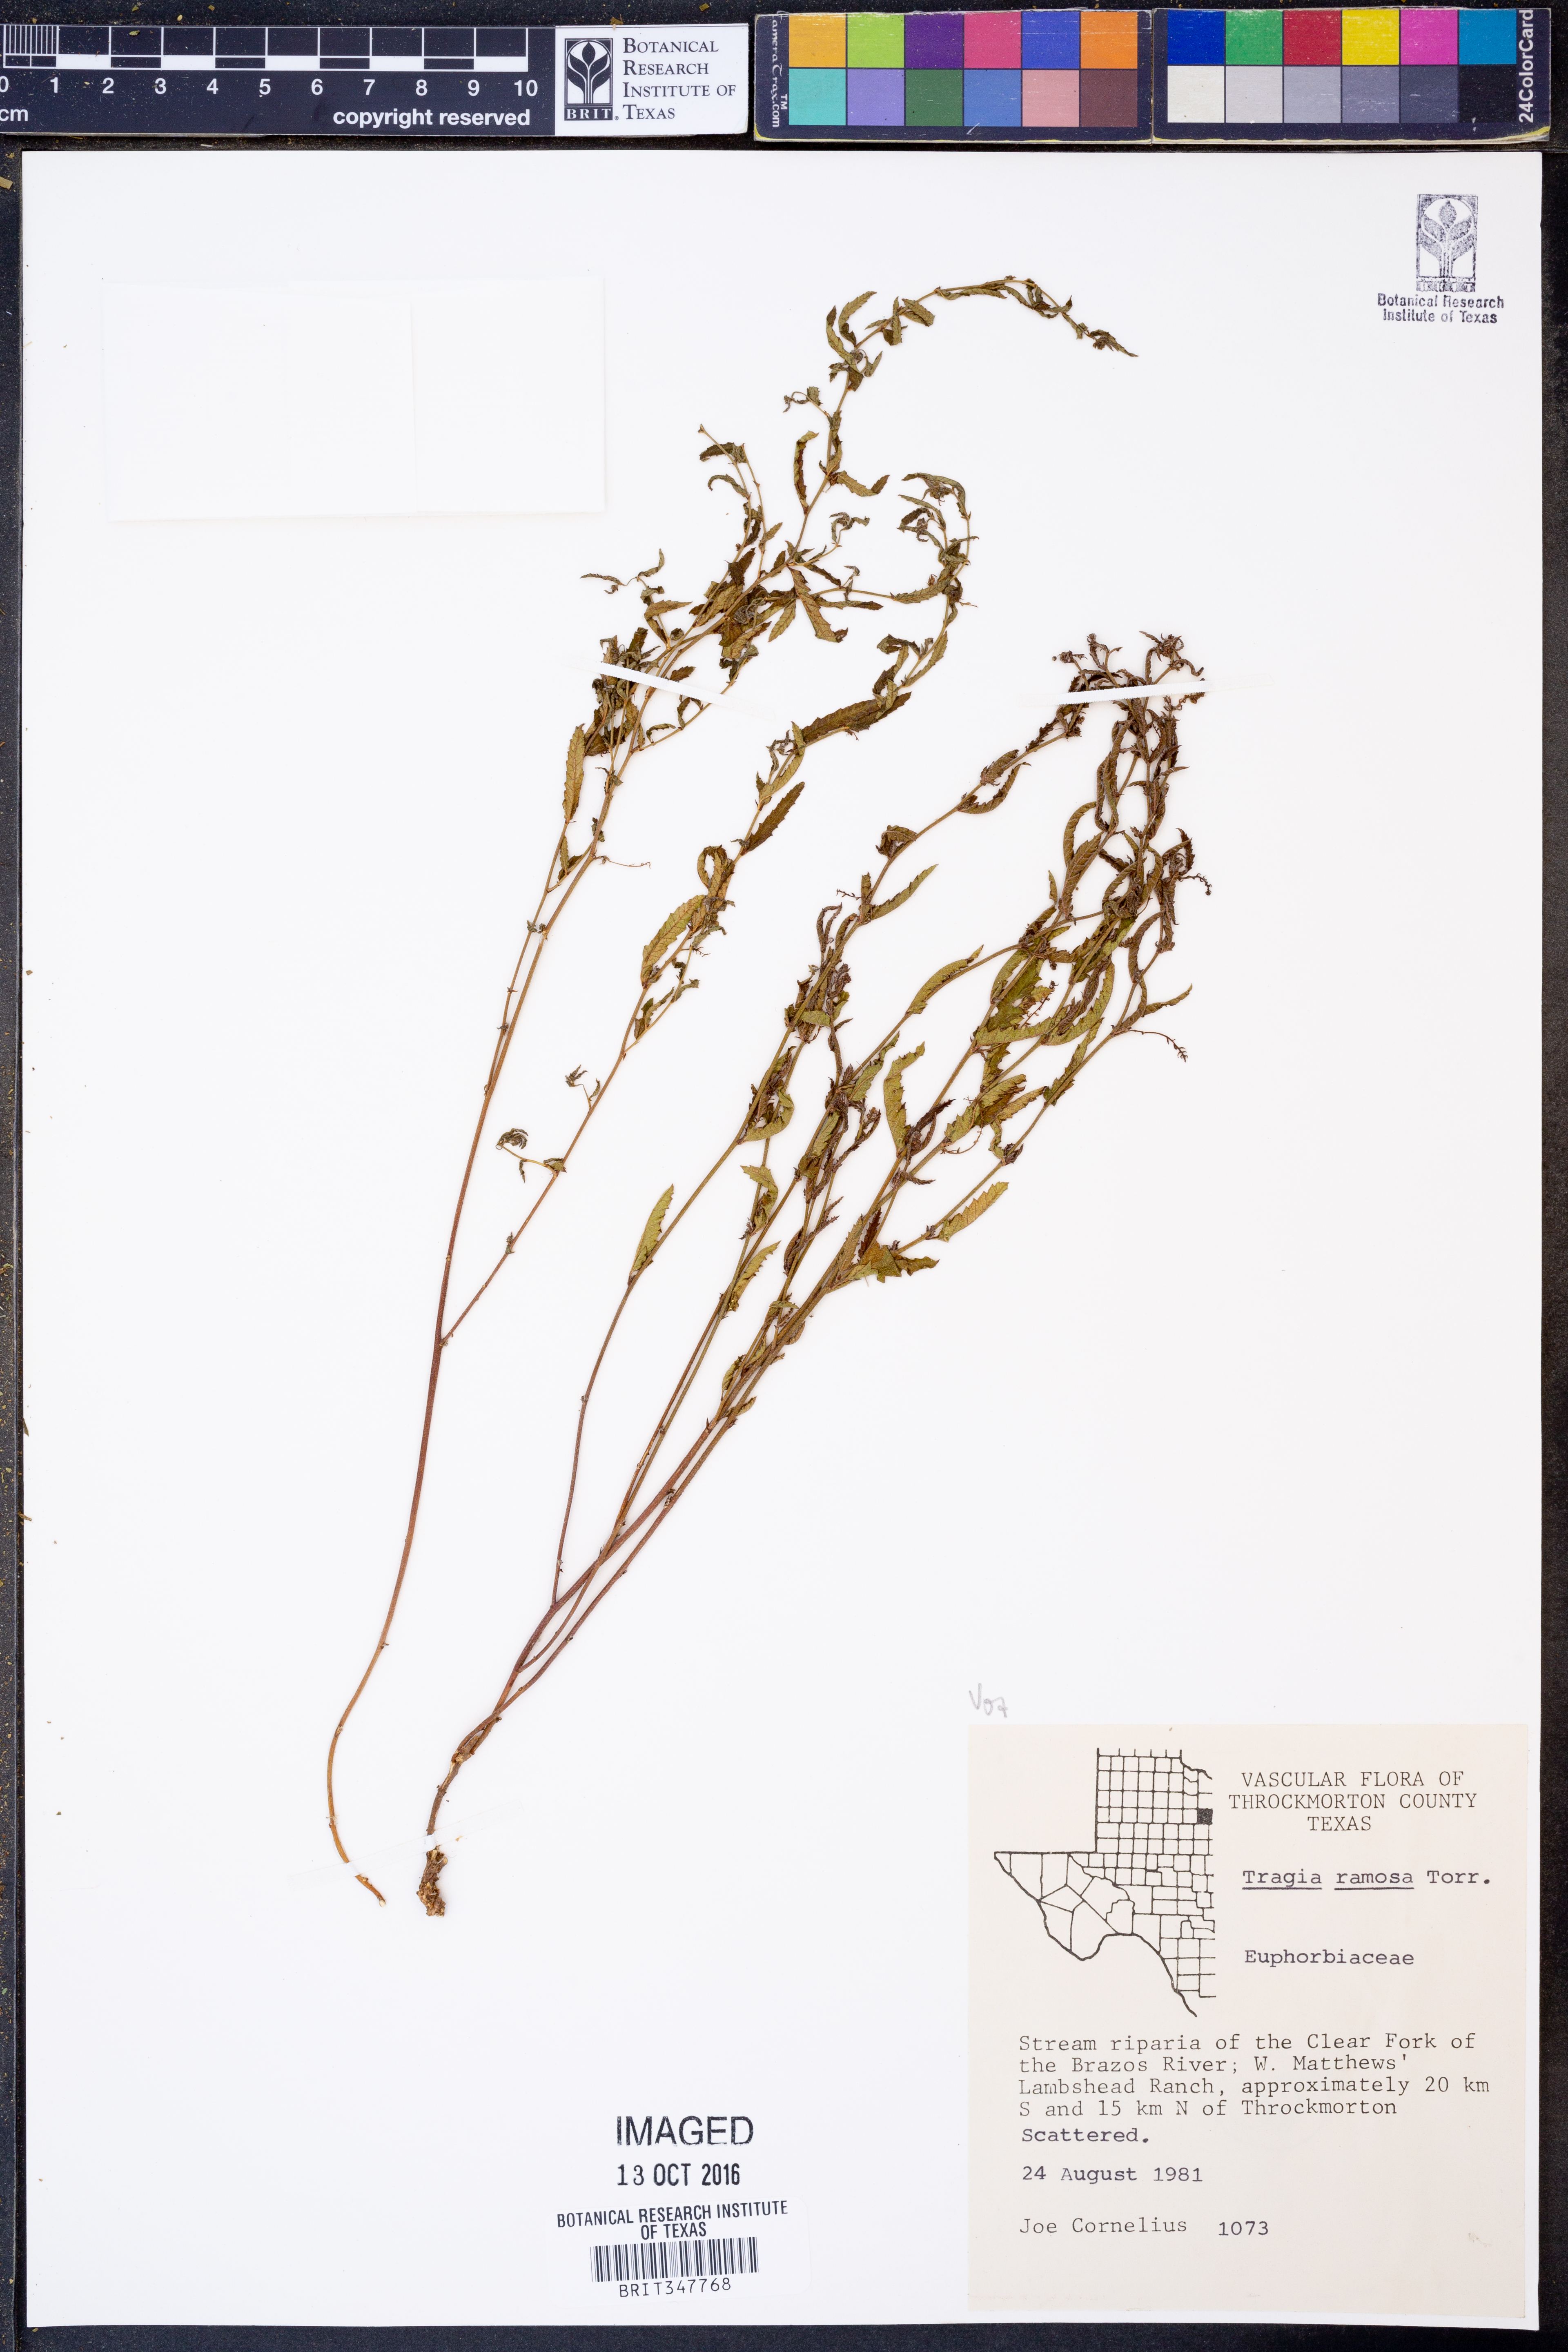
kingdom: Plantae
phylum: Tracheophyta
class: Magnoliopsida
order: Malpighiales
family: Euphorbiaceae
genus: Tragia
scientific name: Tragia ramosa
